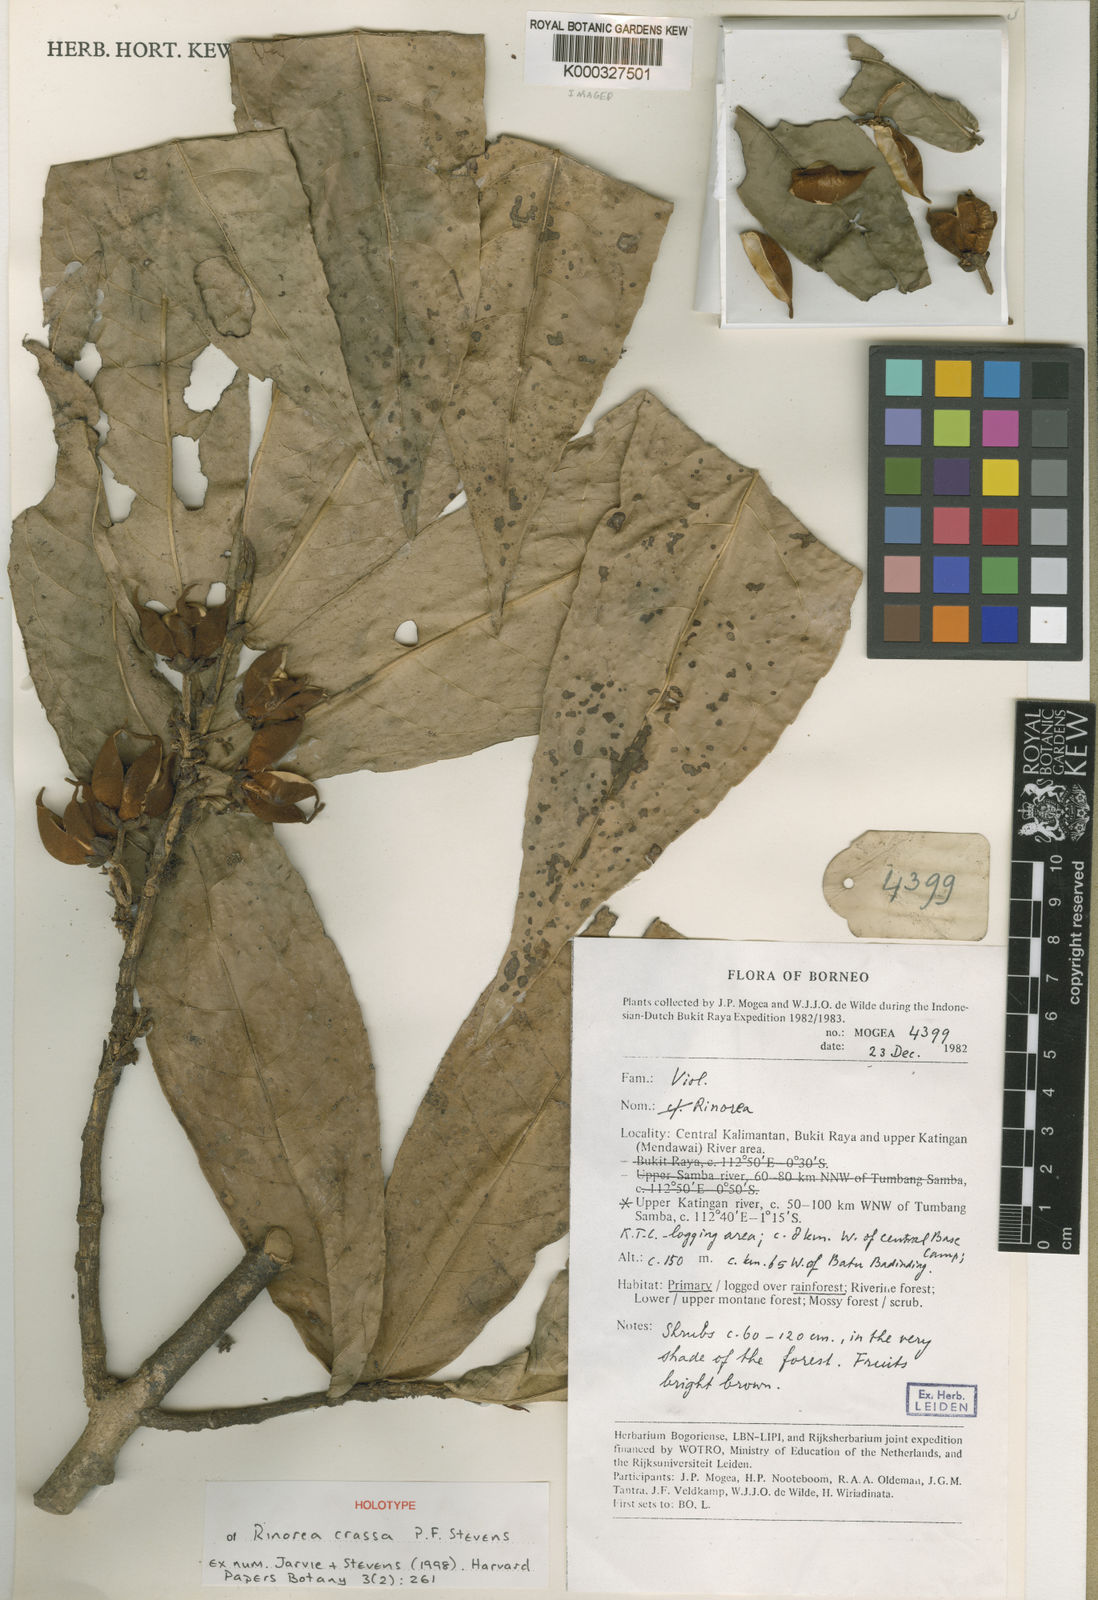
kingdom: Plantae
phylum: Tracheophyta
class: Magnoliopsida
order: Malpighiales
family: Violaceae
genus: Rinorea
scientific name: Rinorea crassa
